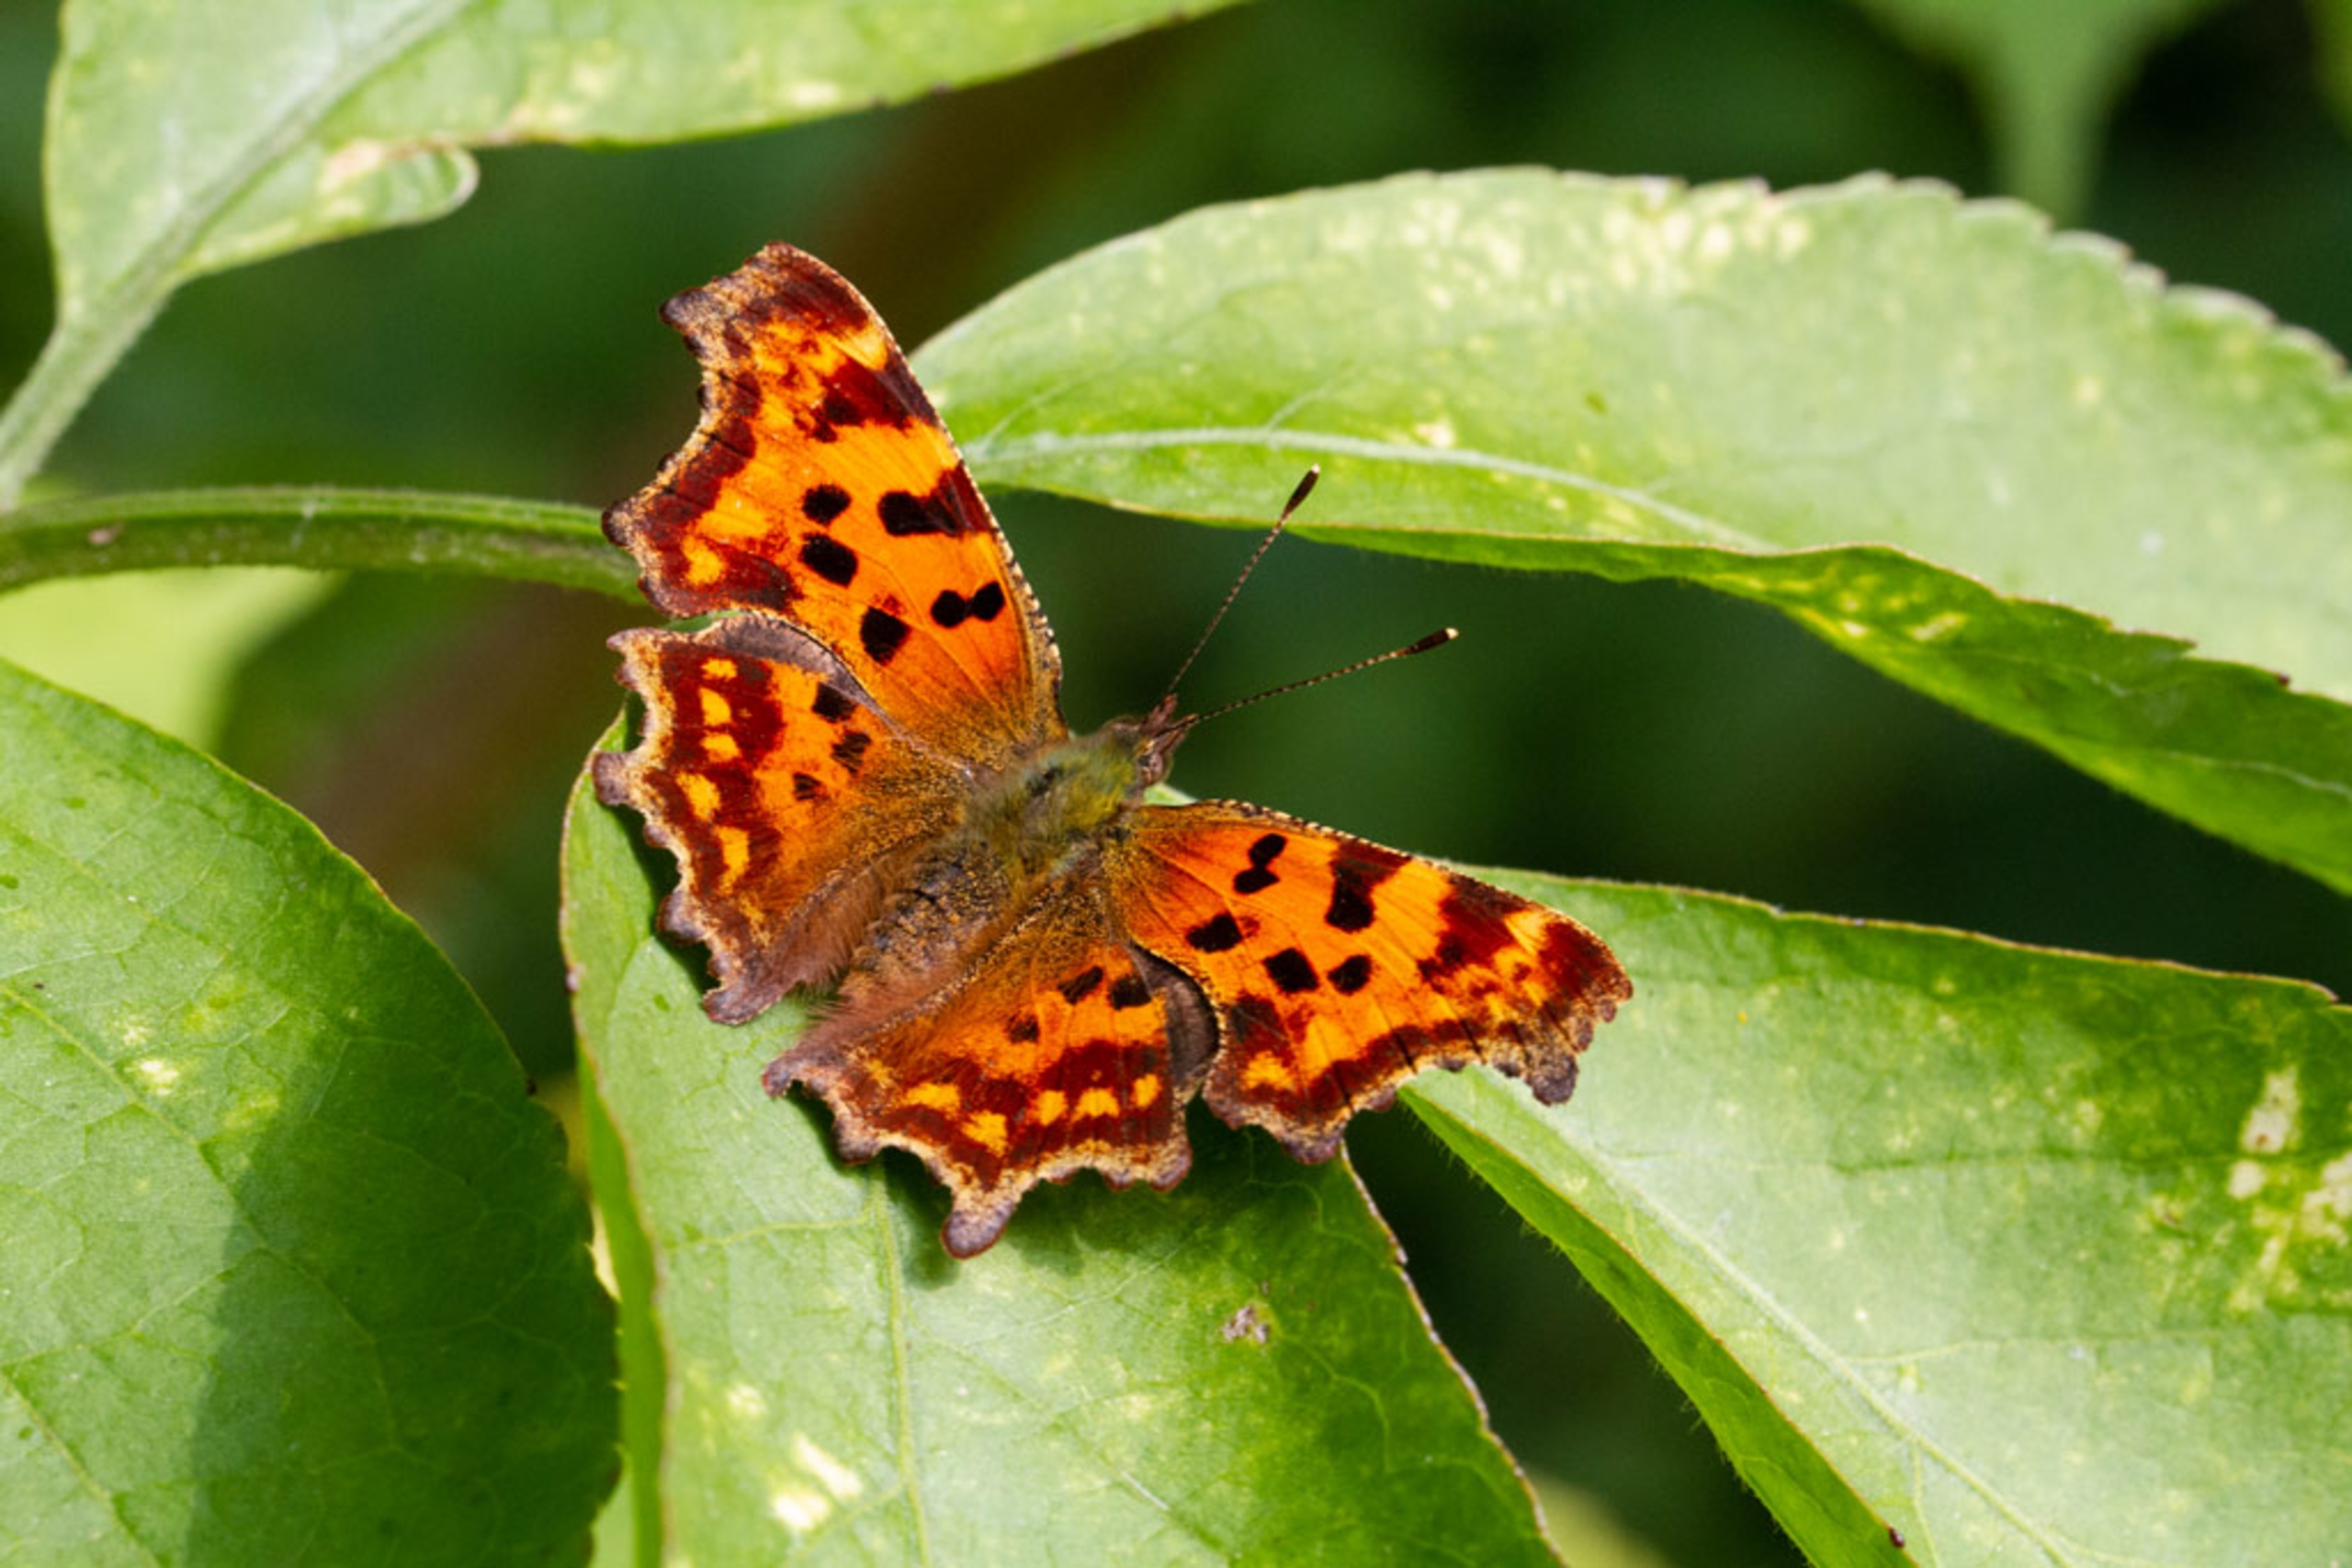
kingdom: Animalia
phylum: Arthropoda
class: Insecta
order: Lepidoptera
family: Nymphalidae
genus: Polygonia
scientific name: Polygonia c-album
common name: Det hvide C
